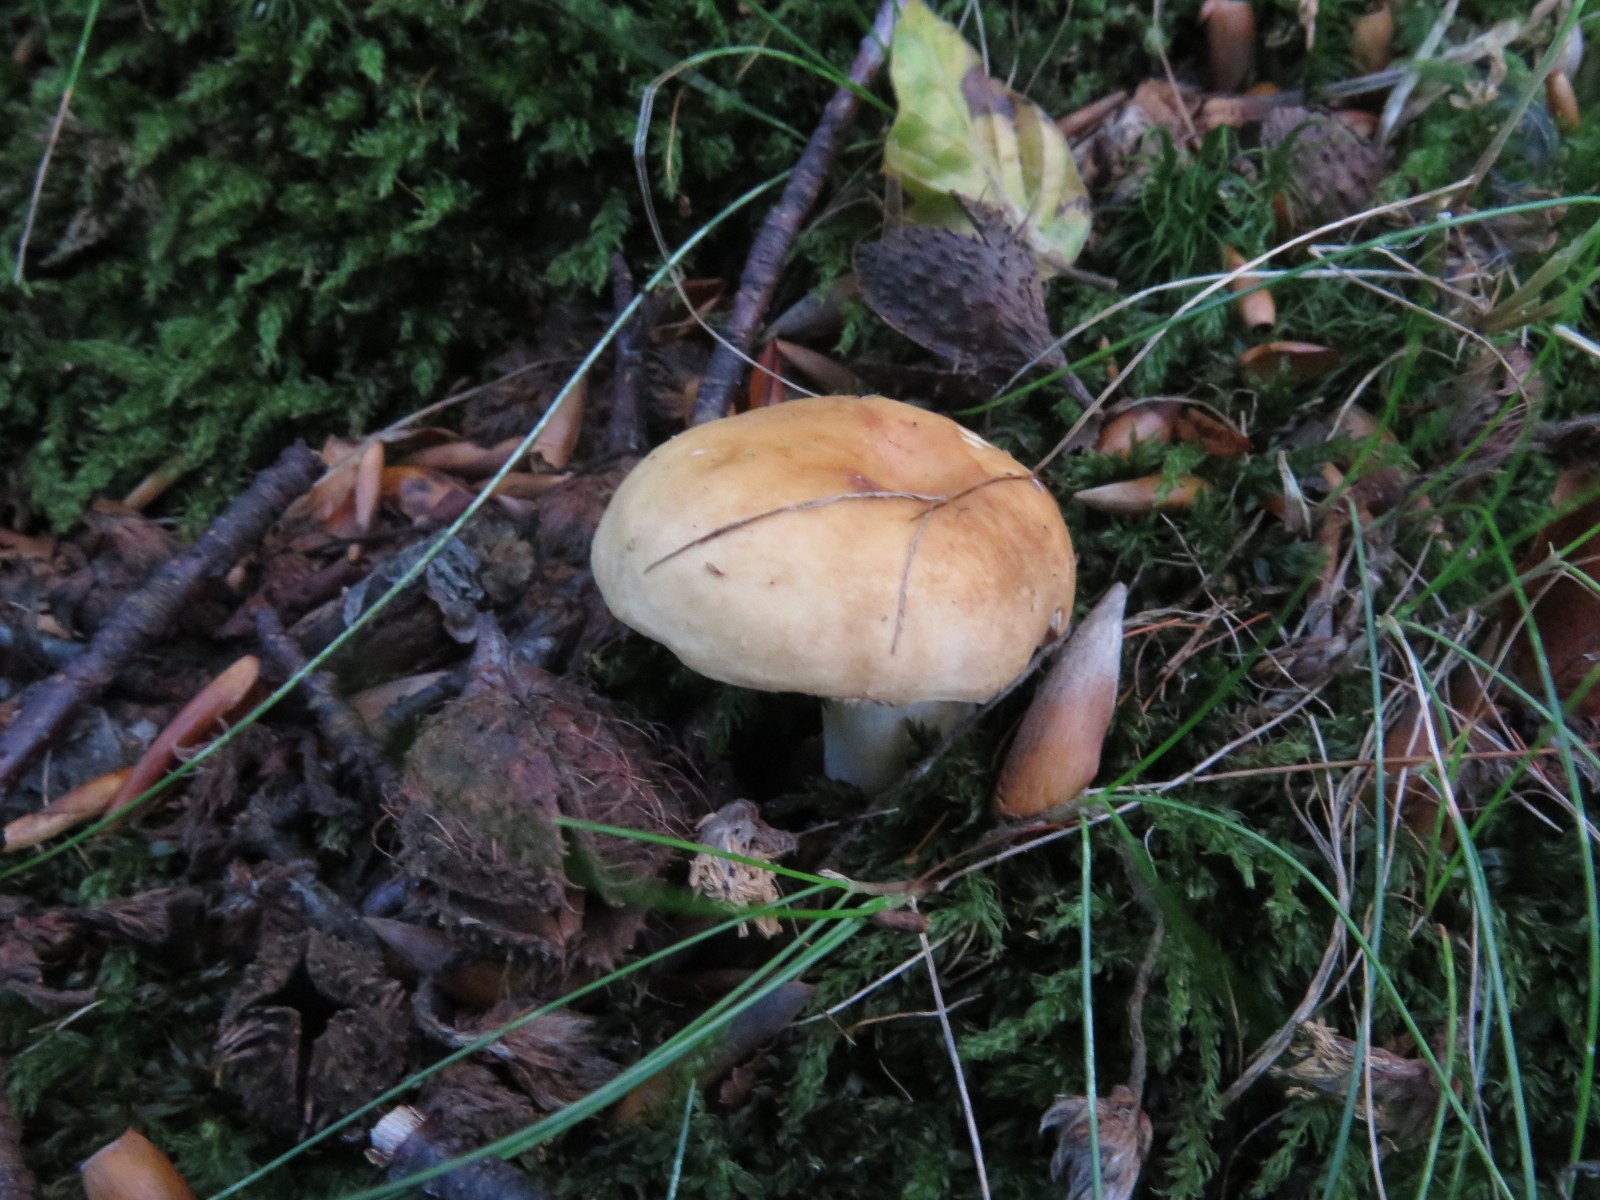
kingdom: Fungi
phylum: Basidiomycota
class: Agaricomycetes
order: Russulales
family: Russulaceae
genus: Russula
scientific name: Russula fellea
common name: galde-skørhat
